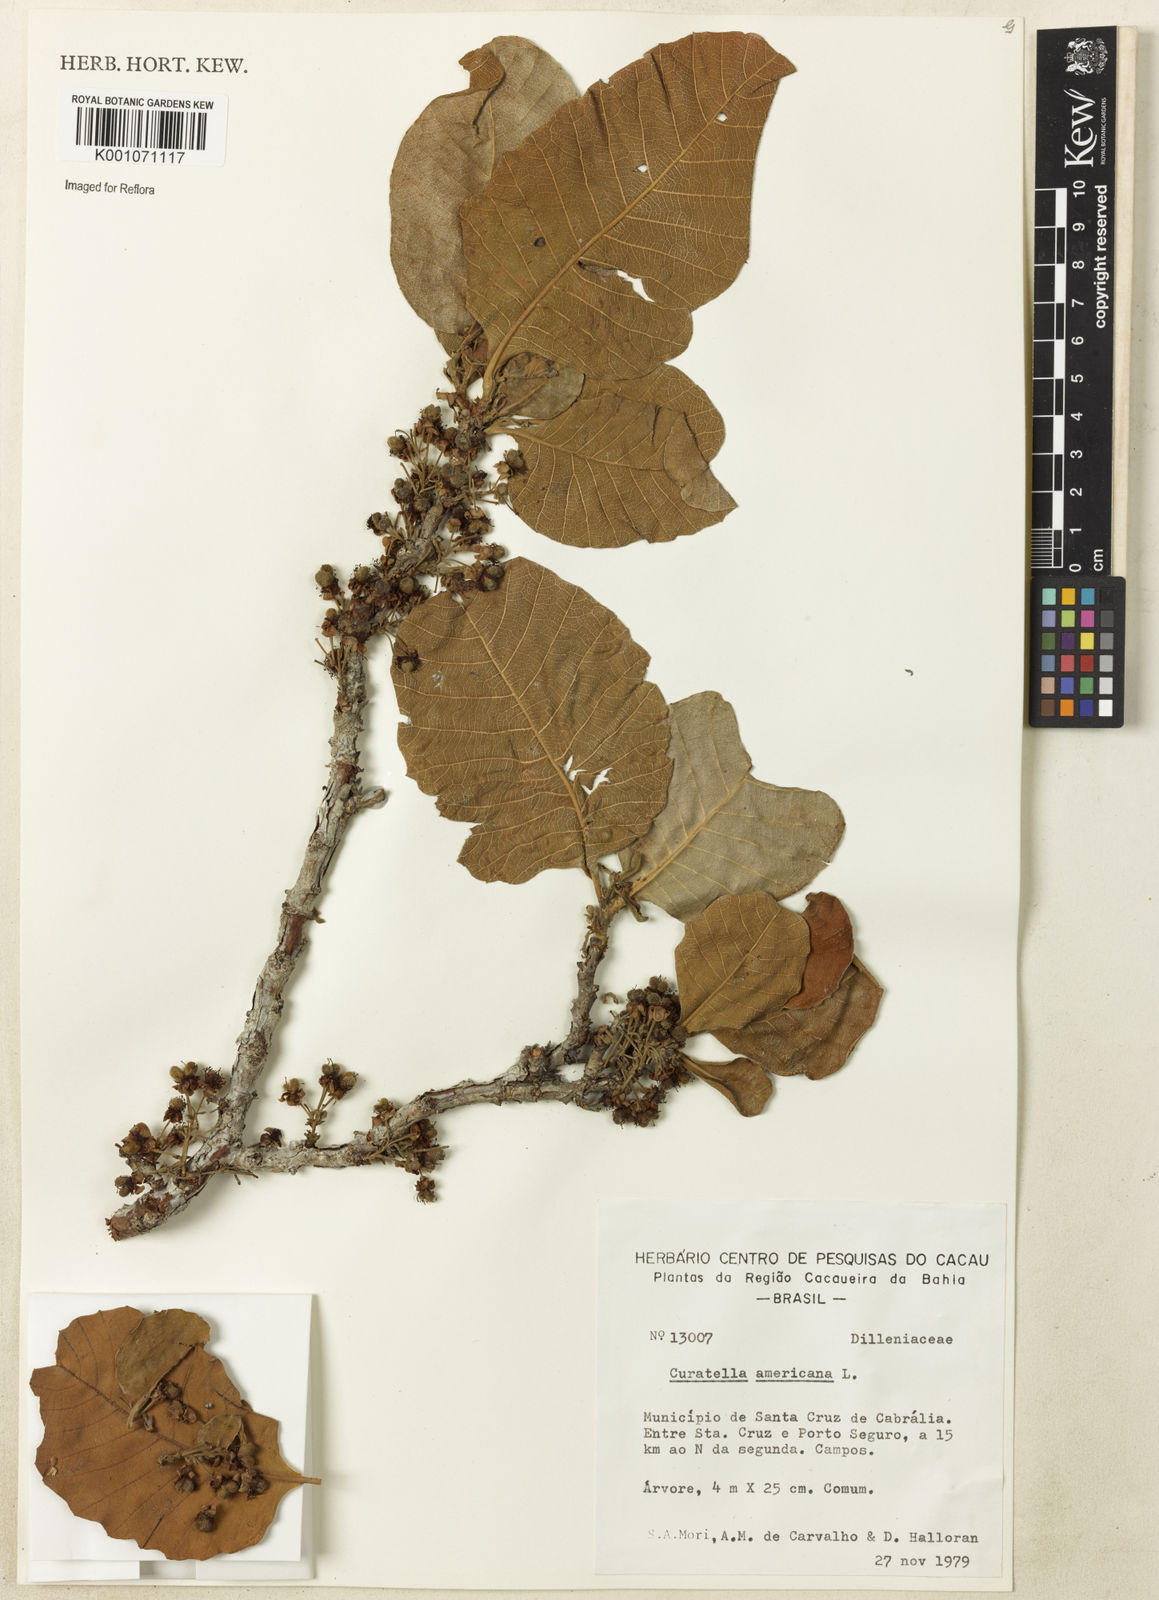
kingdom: Plantae
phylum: Tracheophyta
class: Magnoliopsida
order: Dilleniales
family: Dilleniaceae
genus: Curatella
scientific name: Curatella americana
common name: Sandpaper tree
